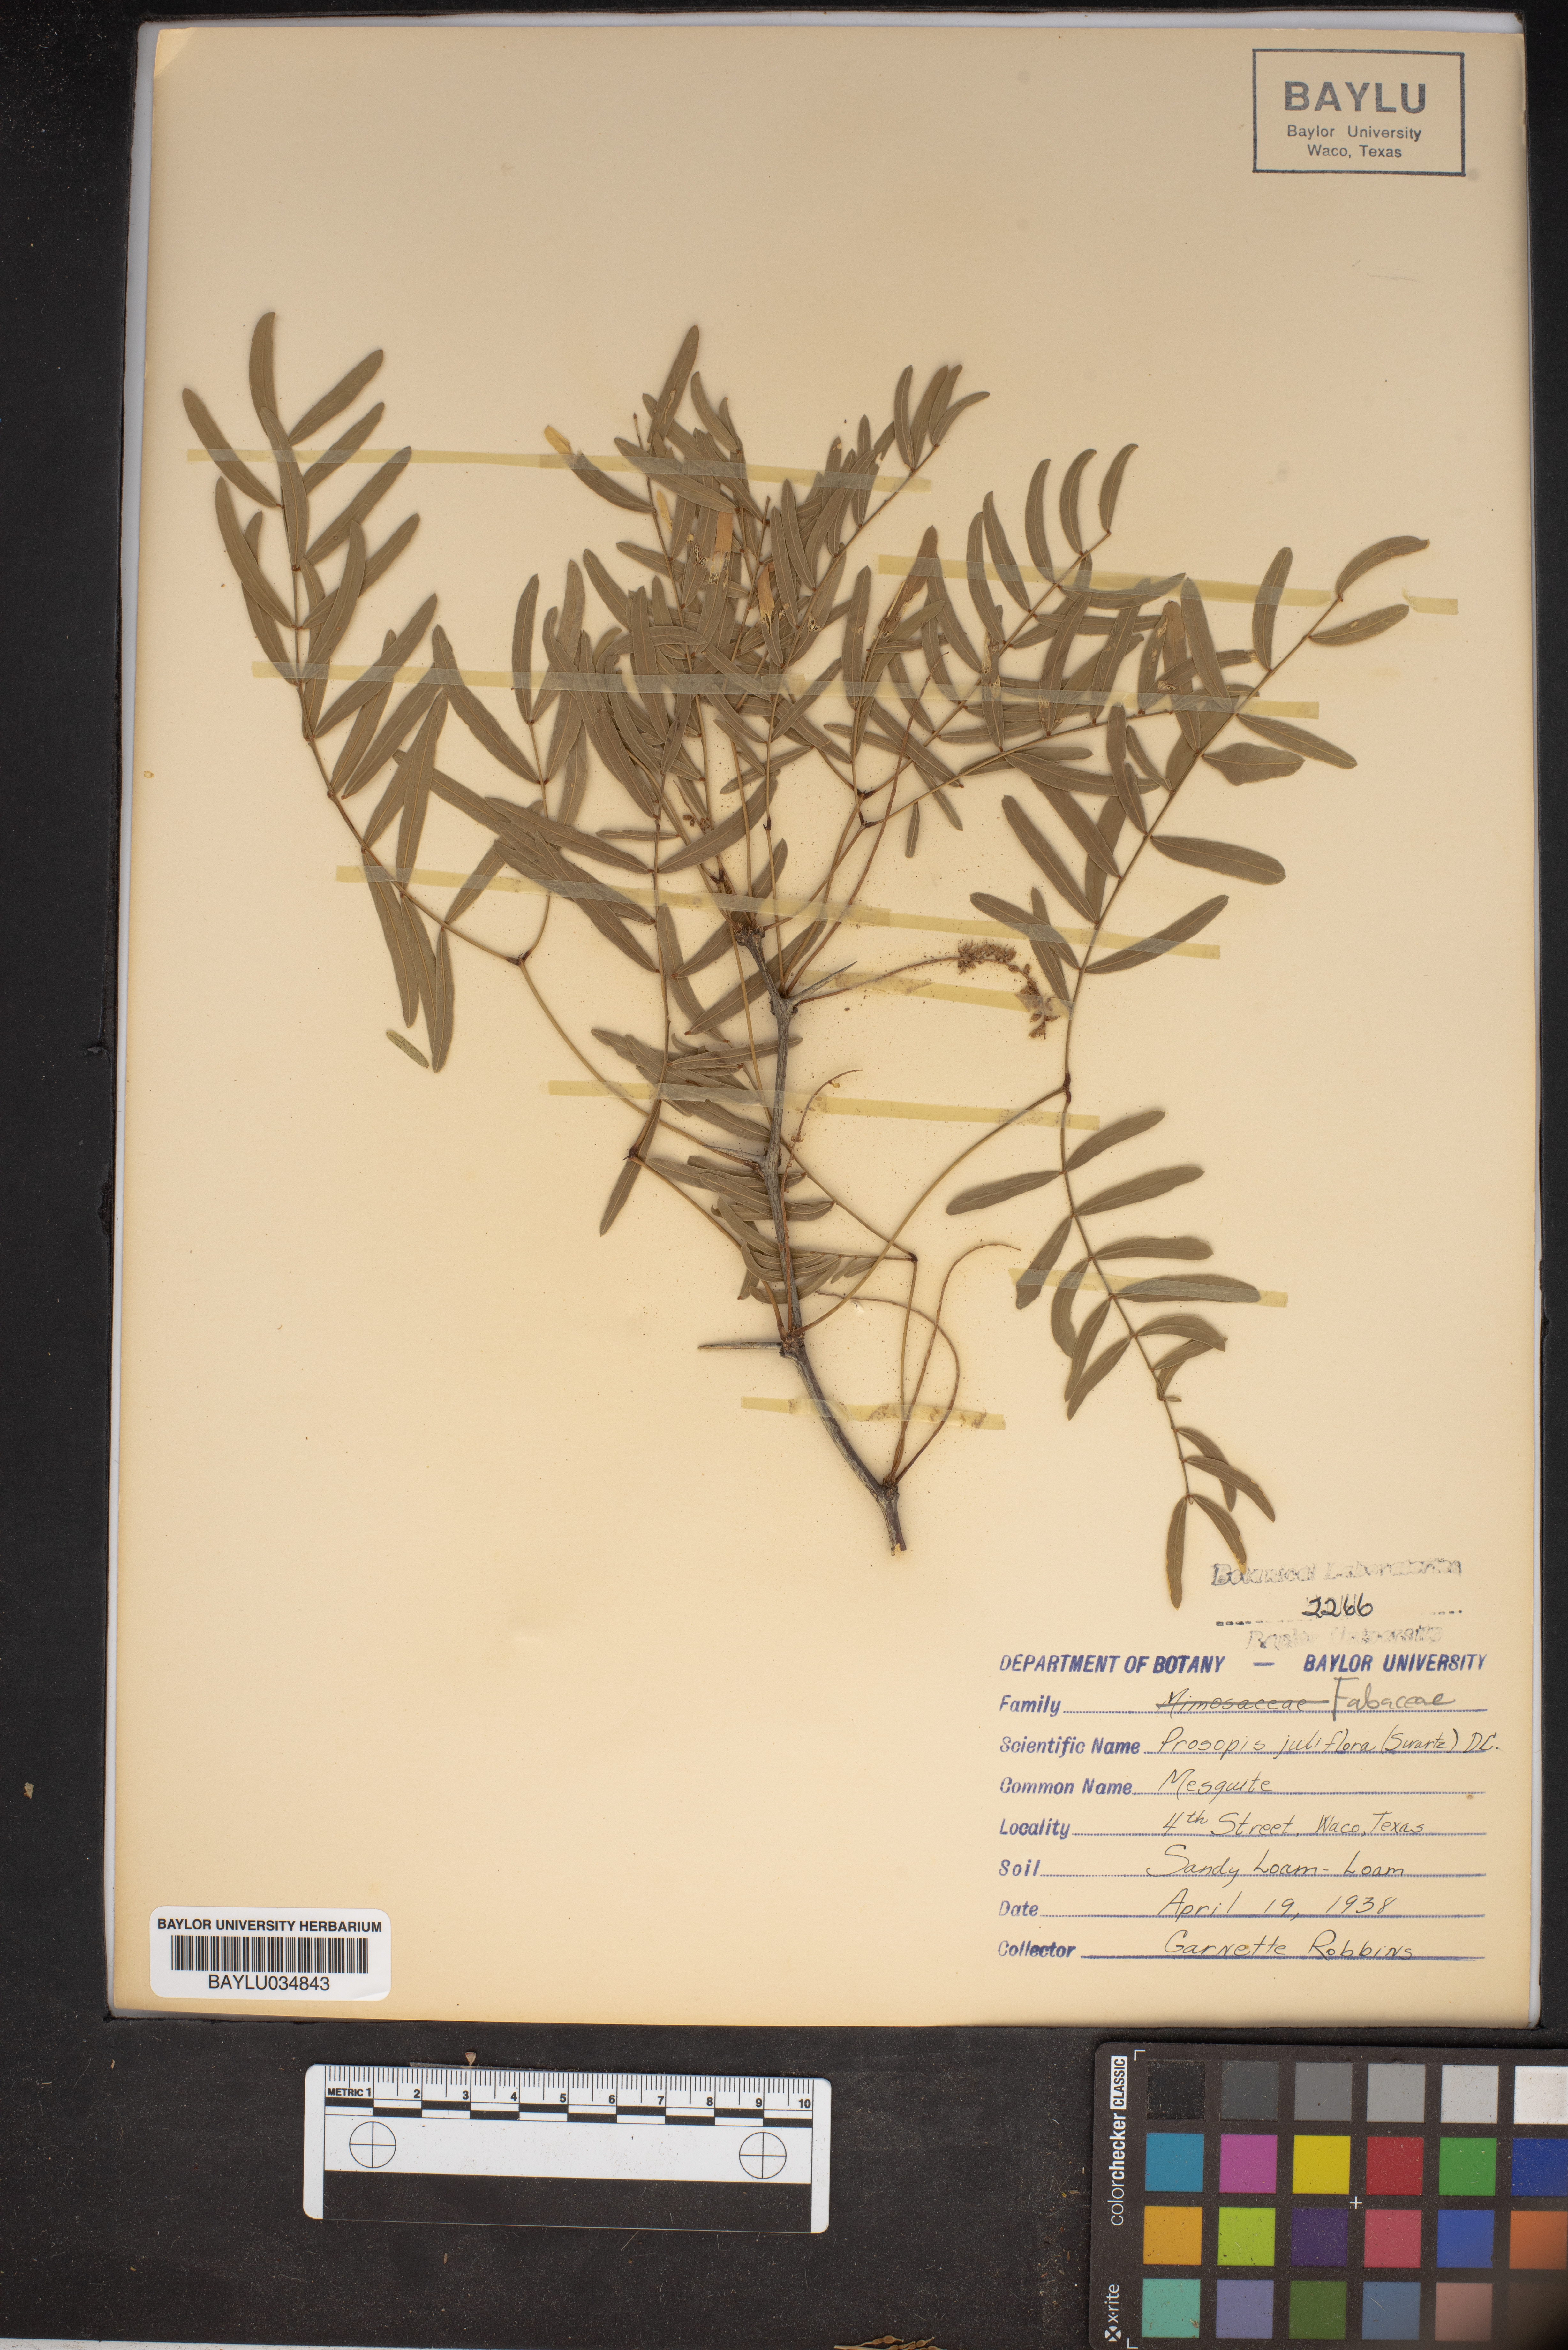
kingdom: Plantae
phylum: Tracheophyta
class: Magnoliopsida
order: Fabales
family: Fabaceae
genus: Prosopis
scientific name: Prosopis juliflora
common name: Mesquite
